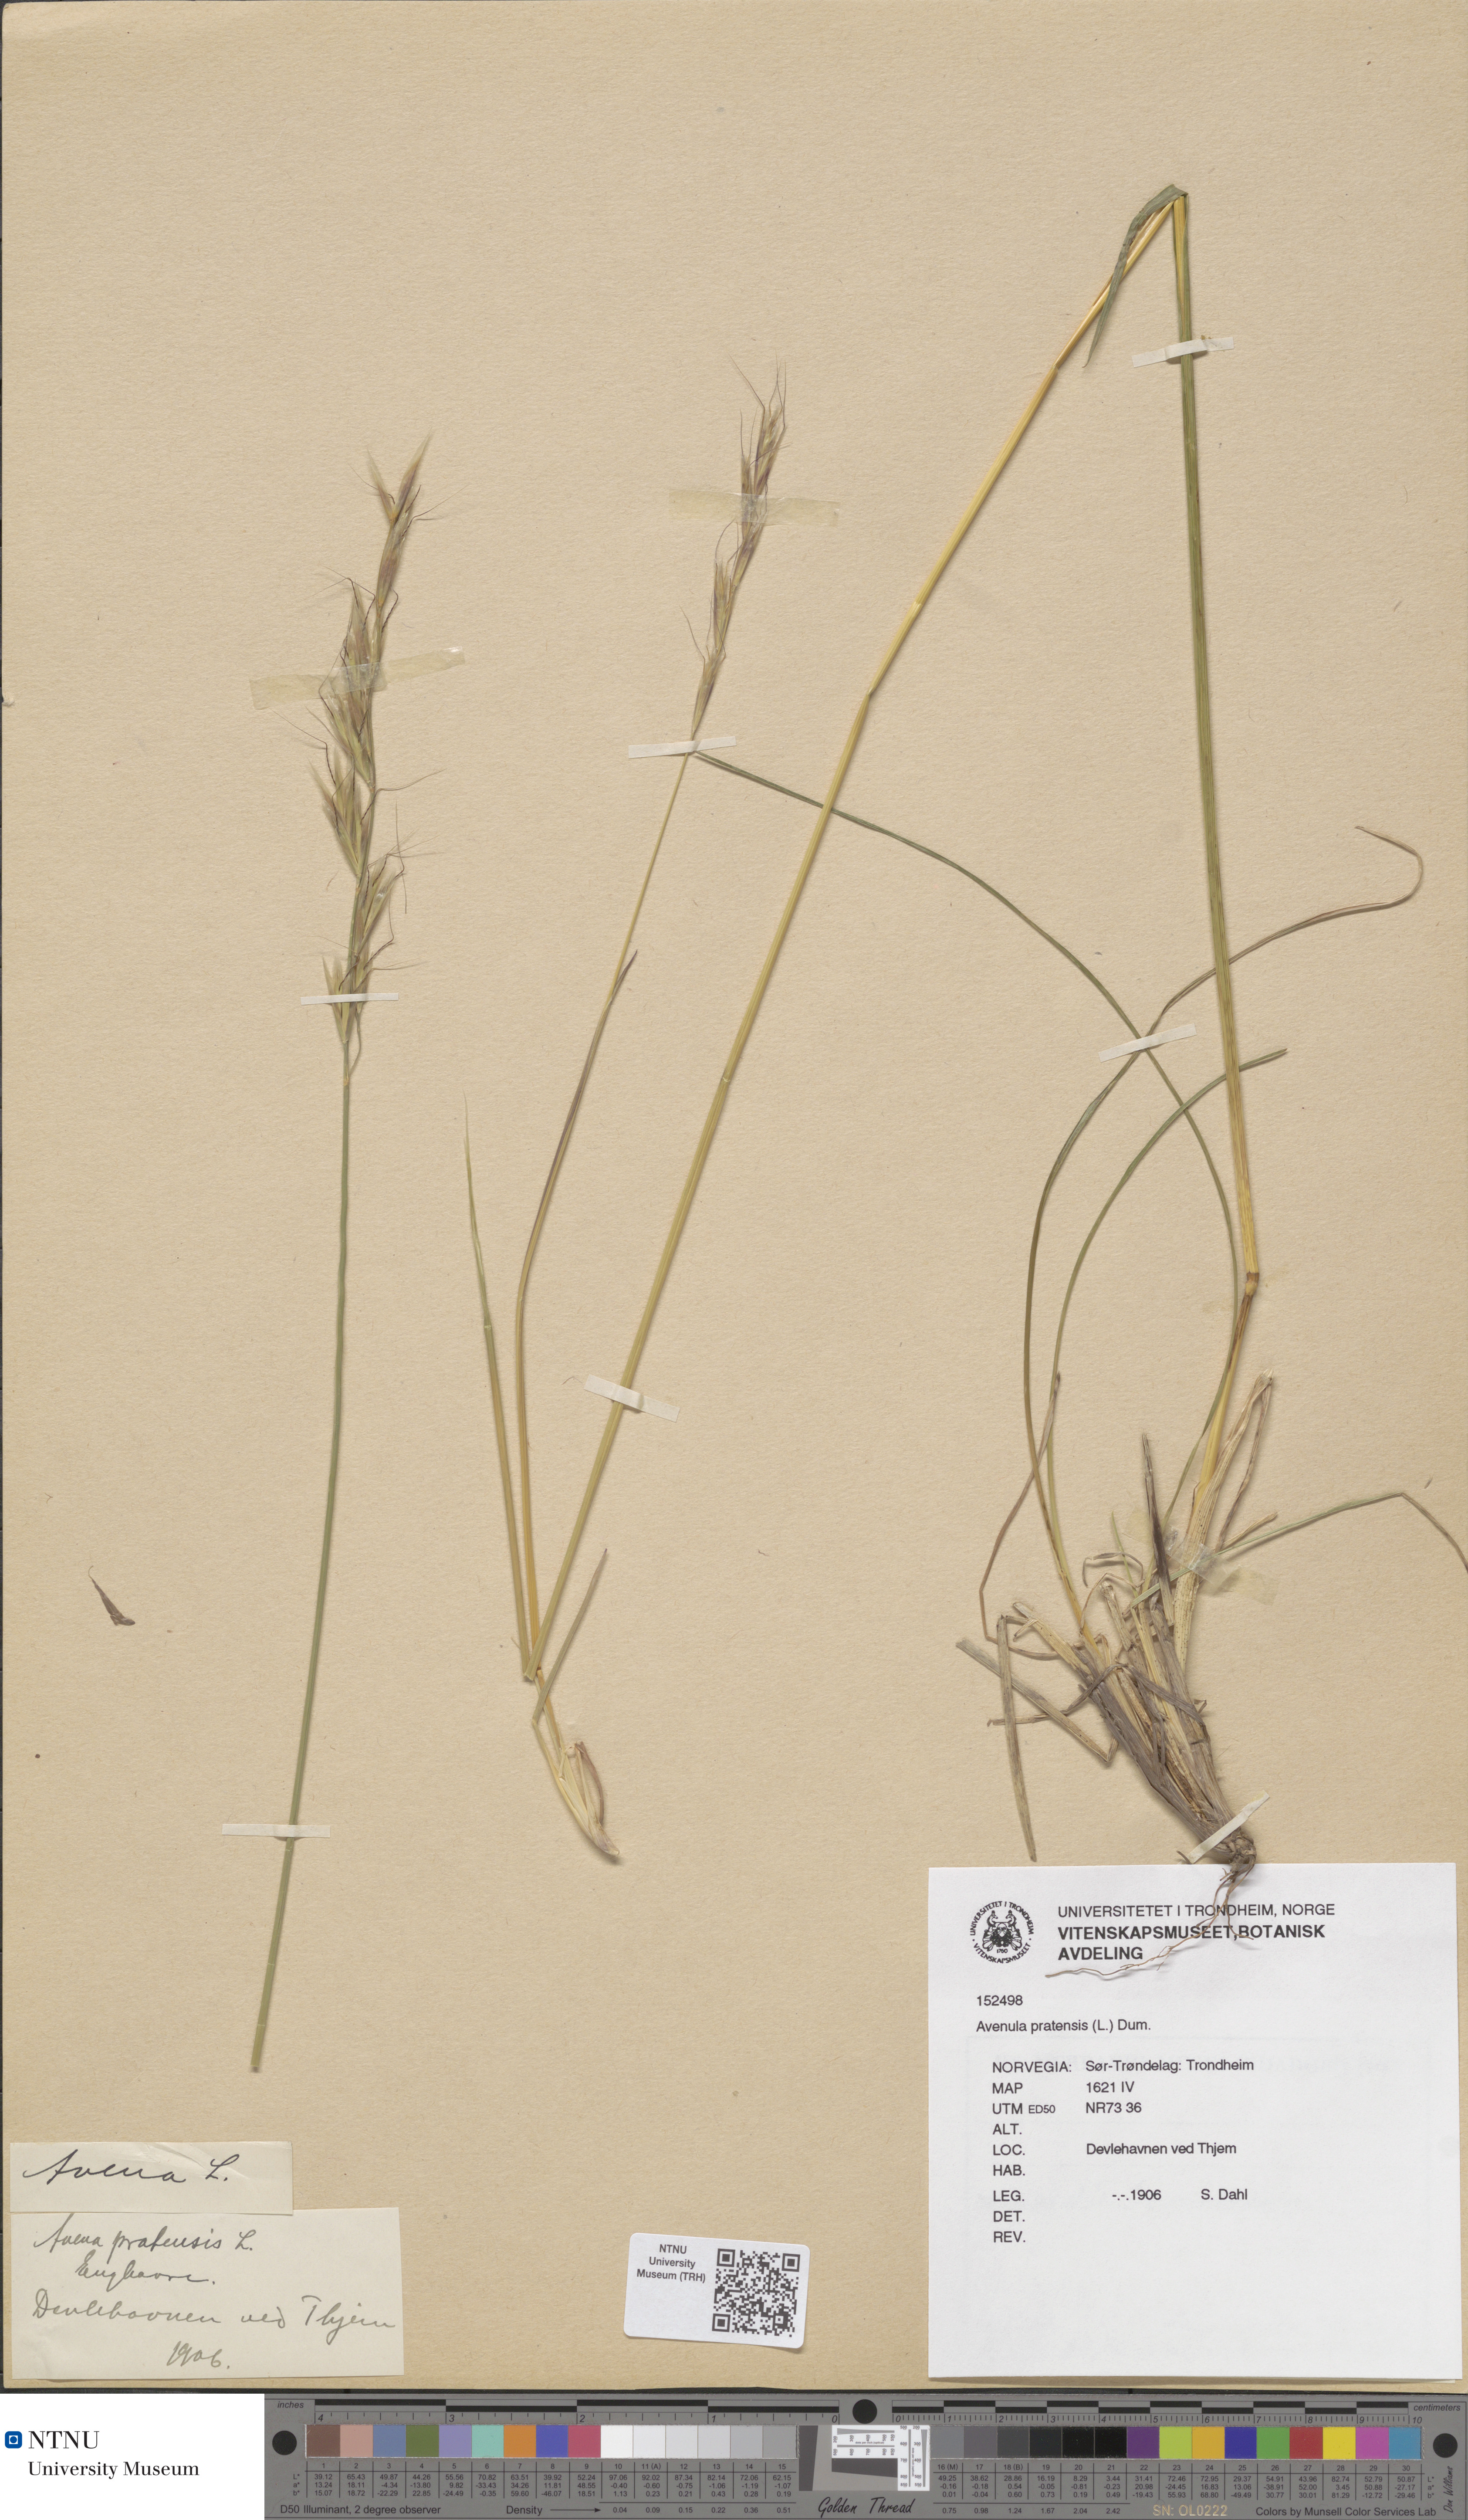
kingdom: Plantae
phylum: Tracheophyta
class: Liliopsida
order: Poales
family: Poaceae
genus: Helictochloa
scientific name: Helictochloa pratensis
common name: Meadow oat grass
